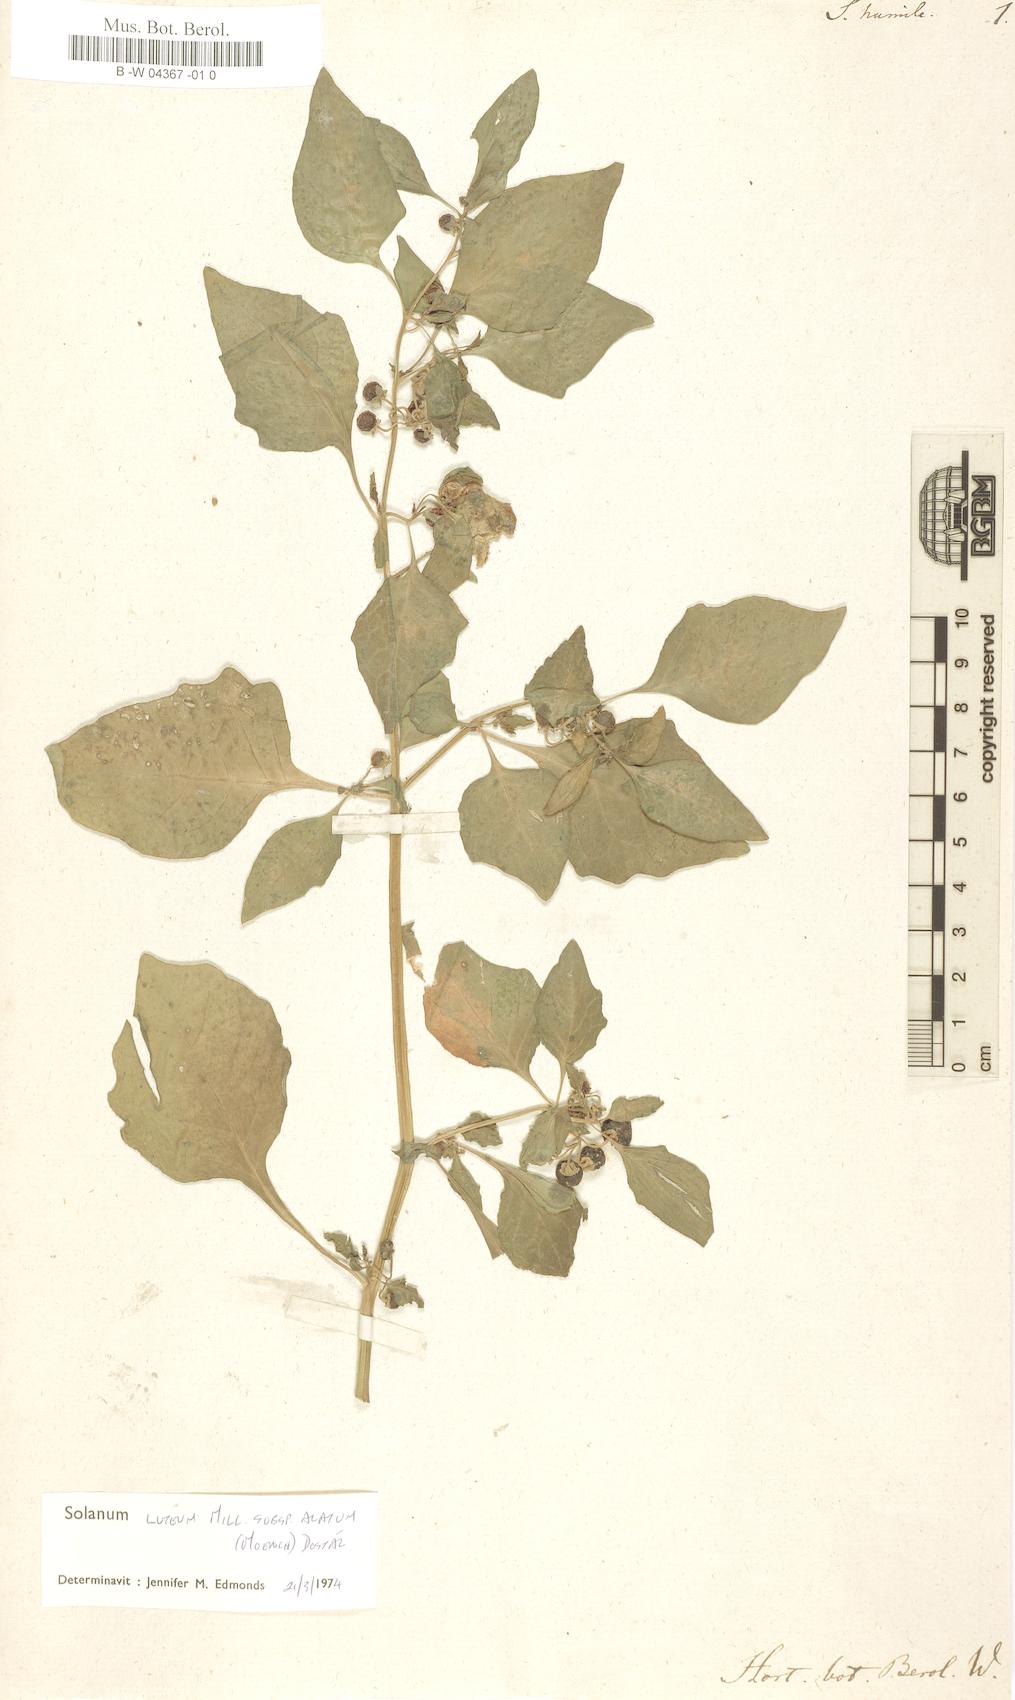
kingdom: Plantae
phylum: Tracheophyta
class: Magnoliopsida
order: Solanales
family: Solanaceae
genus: Solanum
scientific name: Solanum humile
